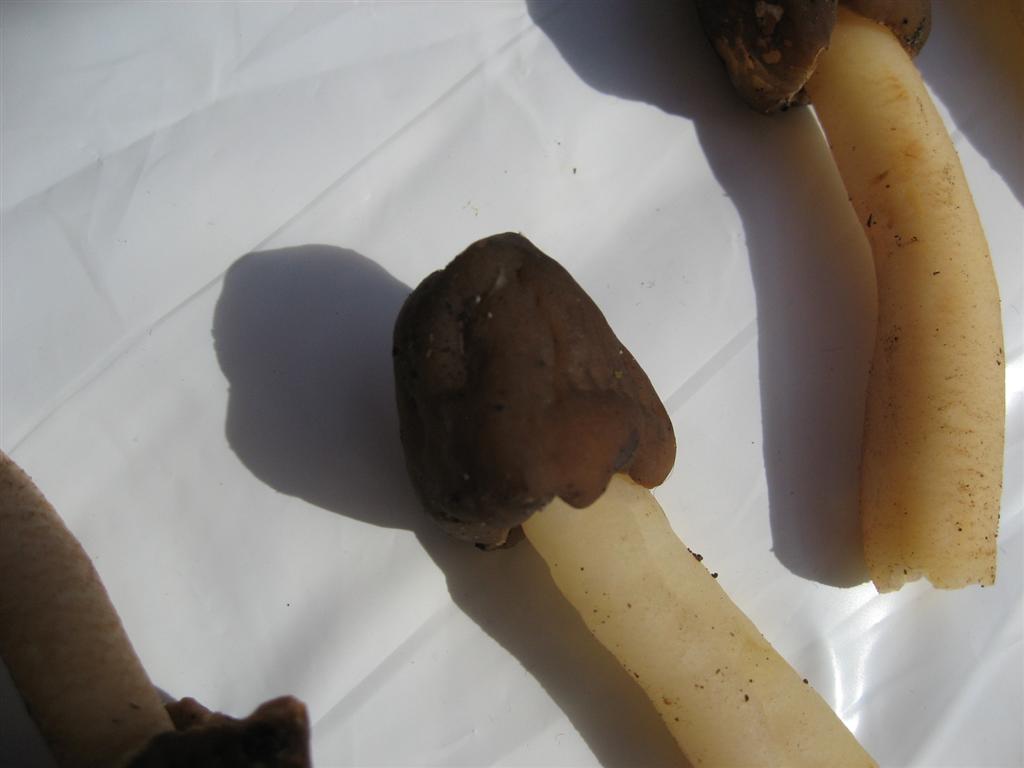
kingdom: Fungi
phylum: Ascomycota
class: Pezizomycetes
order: Pezizales
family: Morchellaceae
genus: Verpa
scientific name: Verpa conica
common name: glat klokkemorkel
